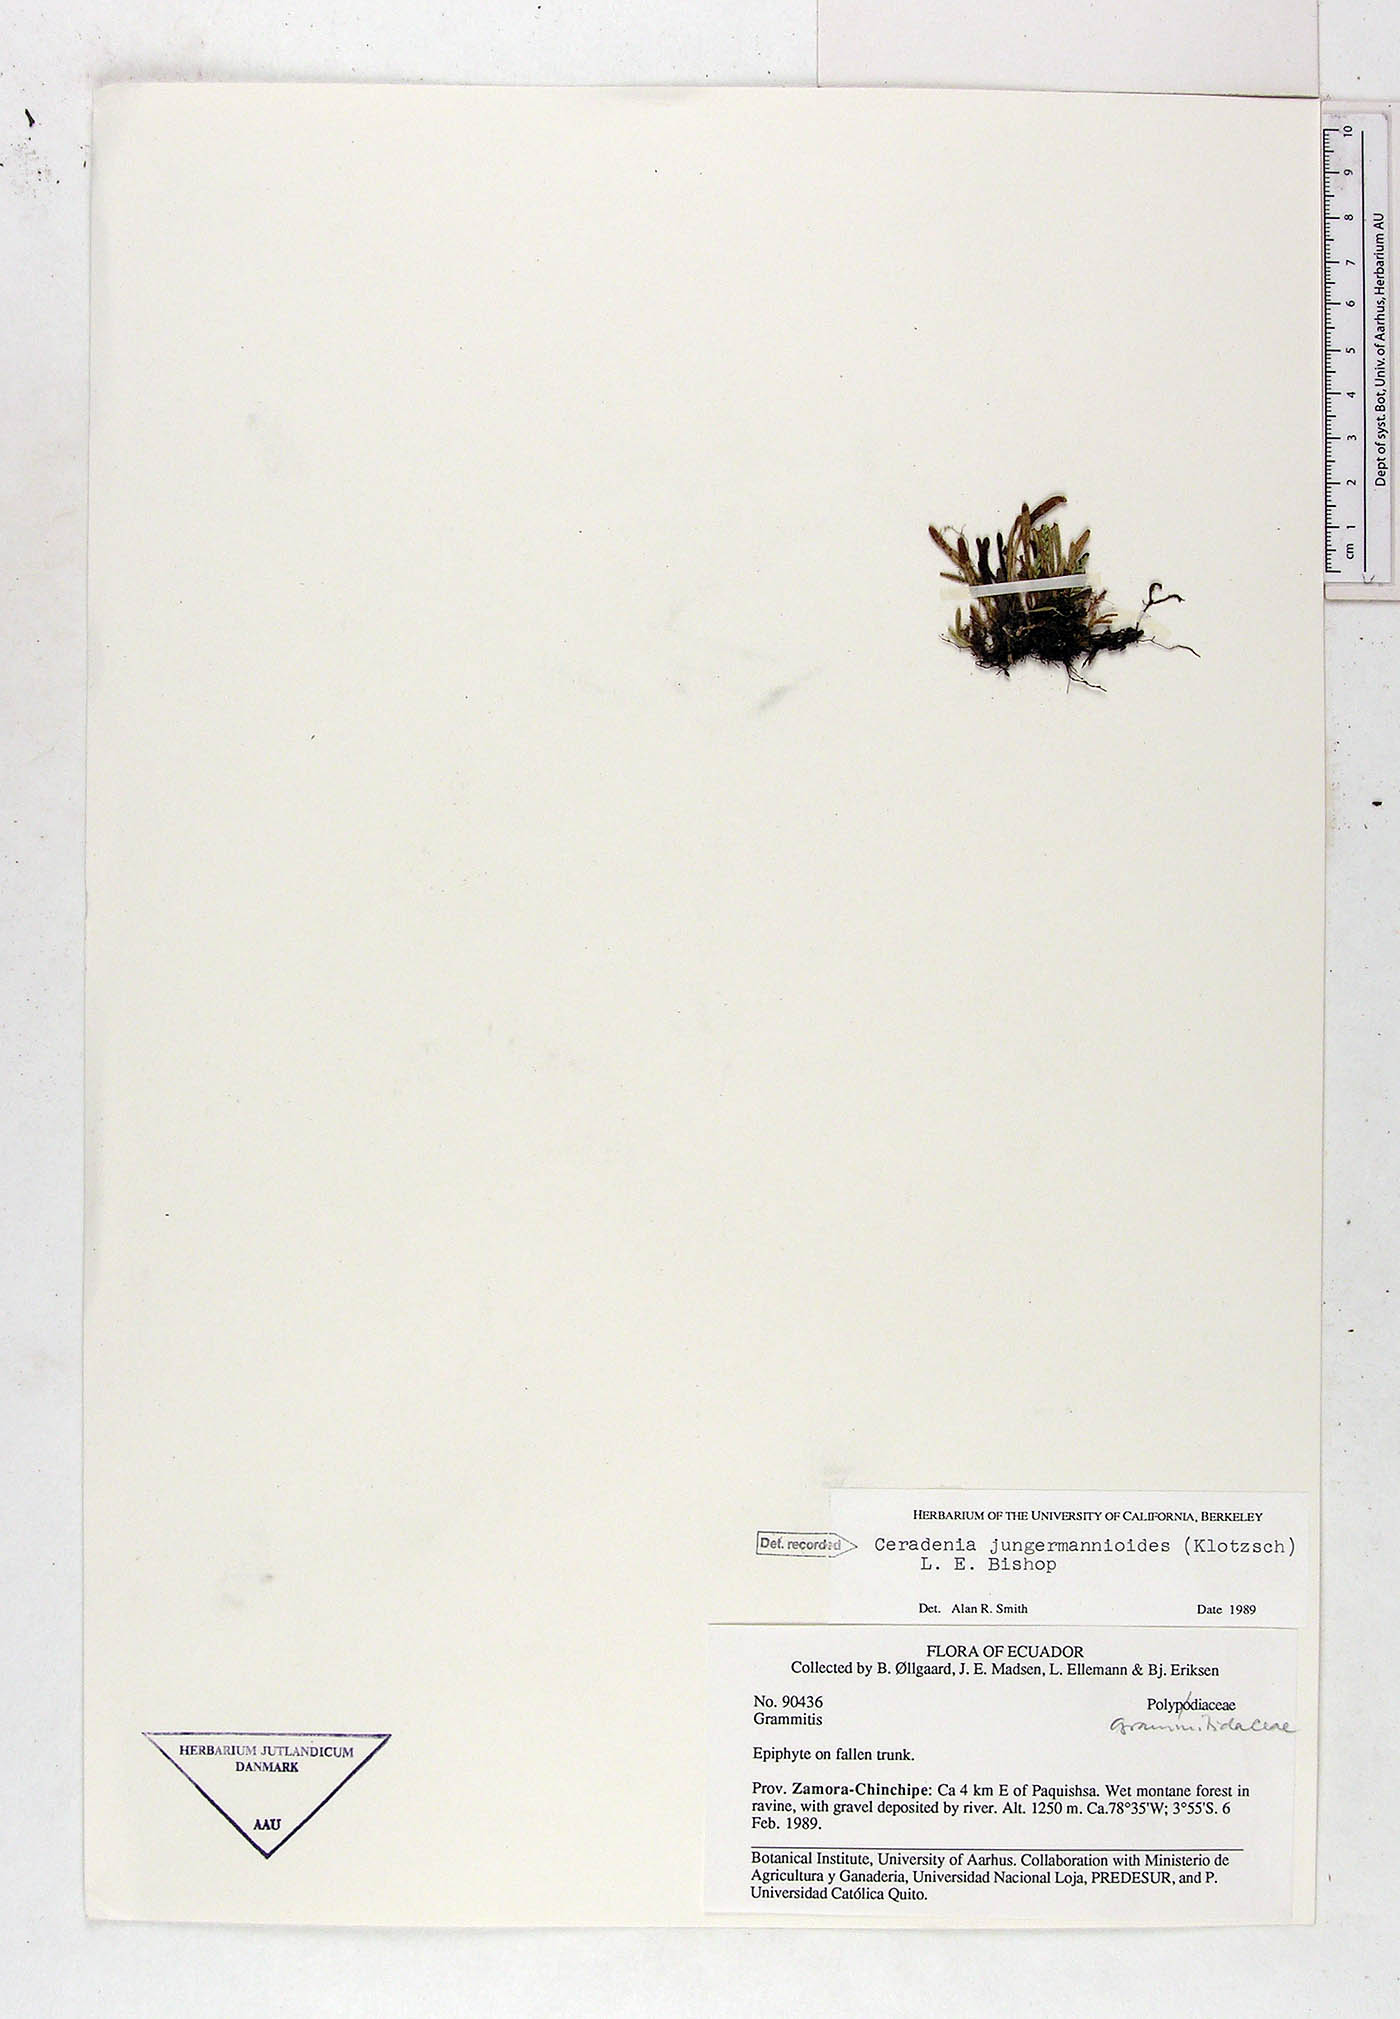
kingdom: Plantae
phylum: Tracheophyta
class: Polypodiopsida
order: Polypodiales
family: Polypodiaceae
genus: Ceradenia
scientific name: Ceradenia jungermannioides
